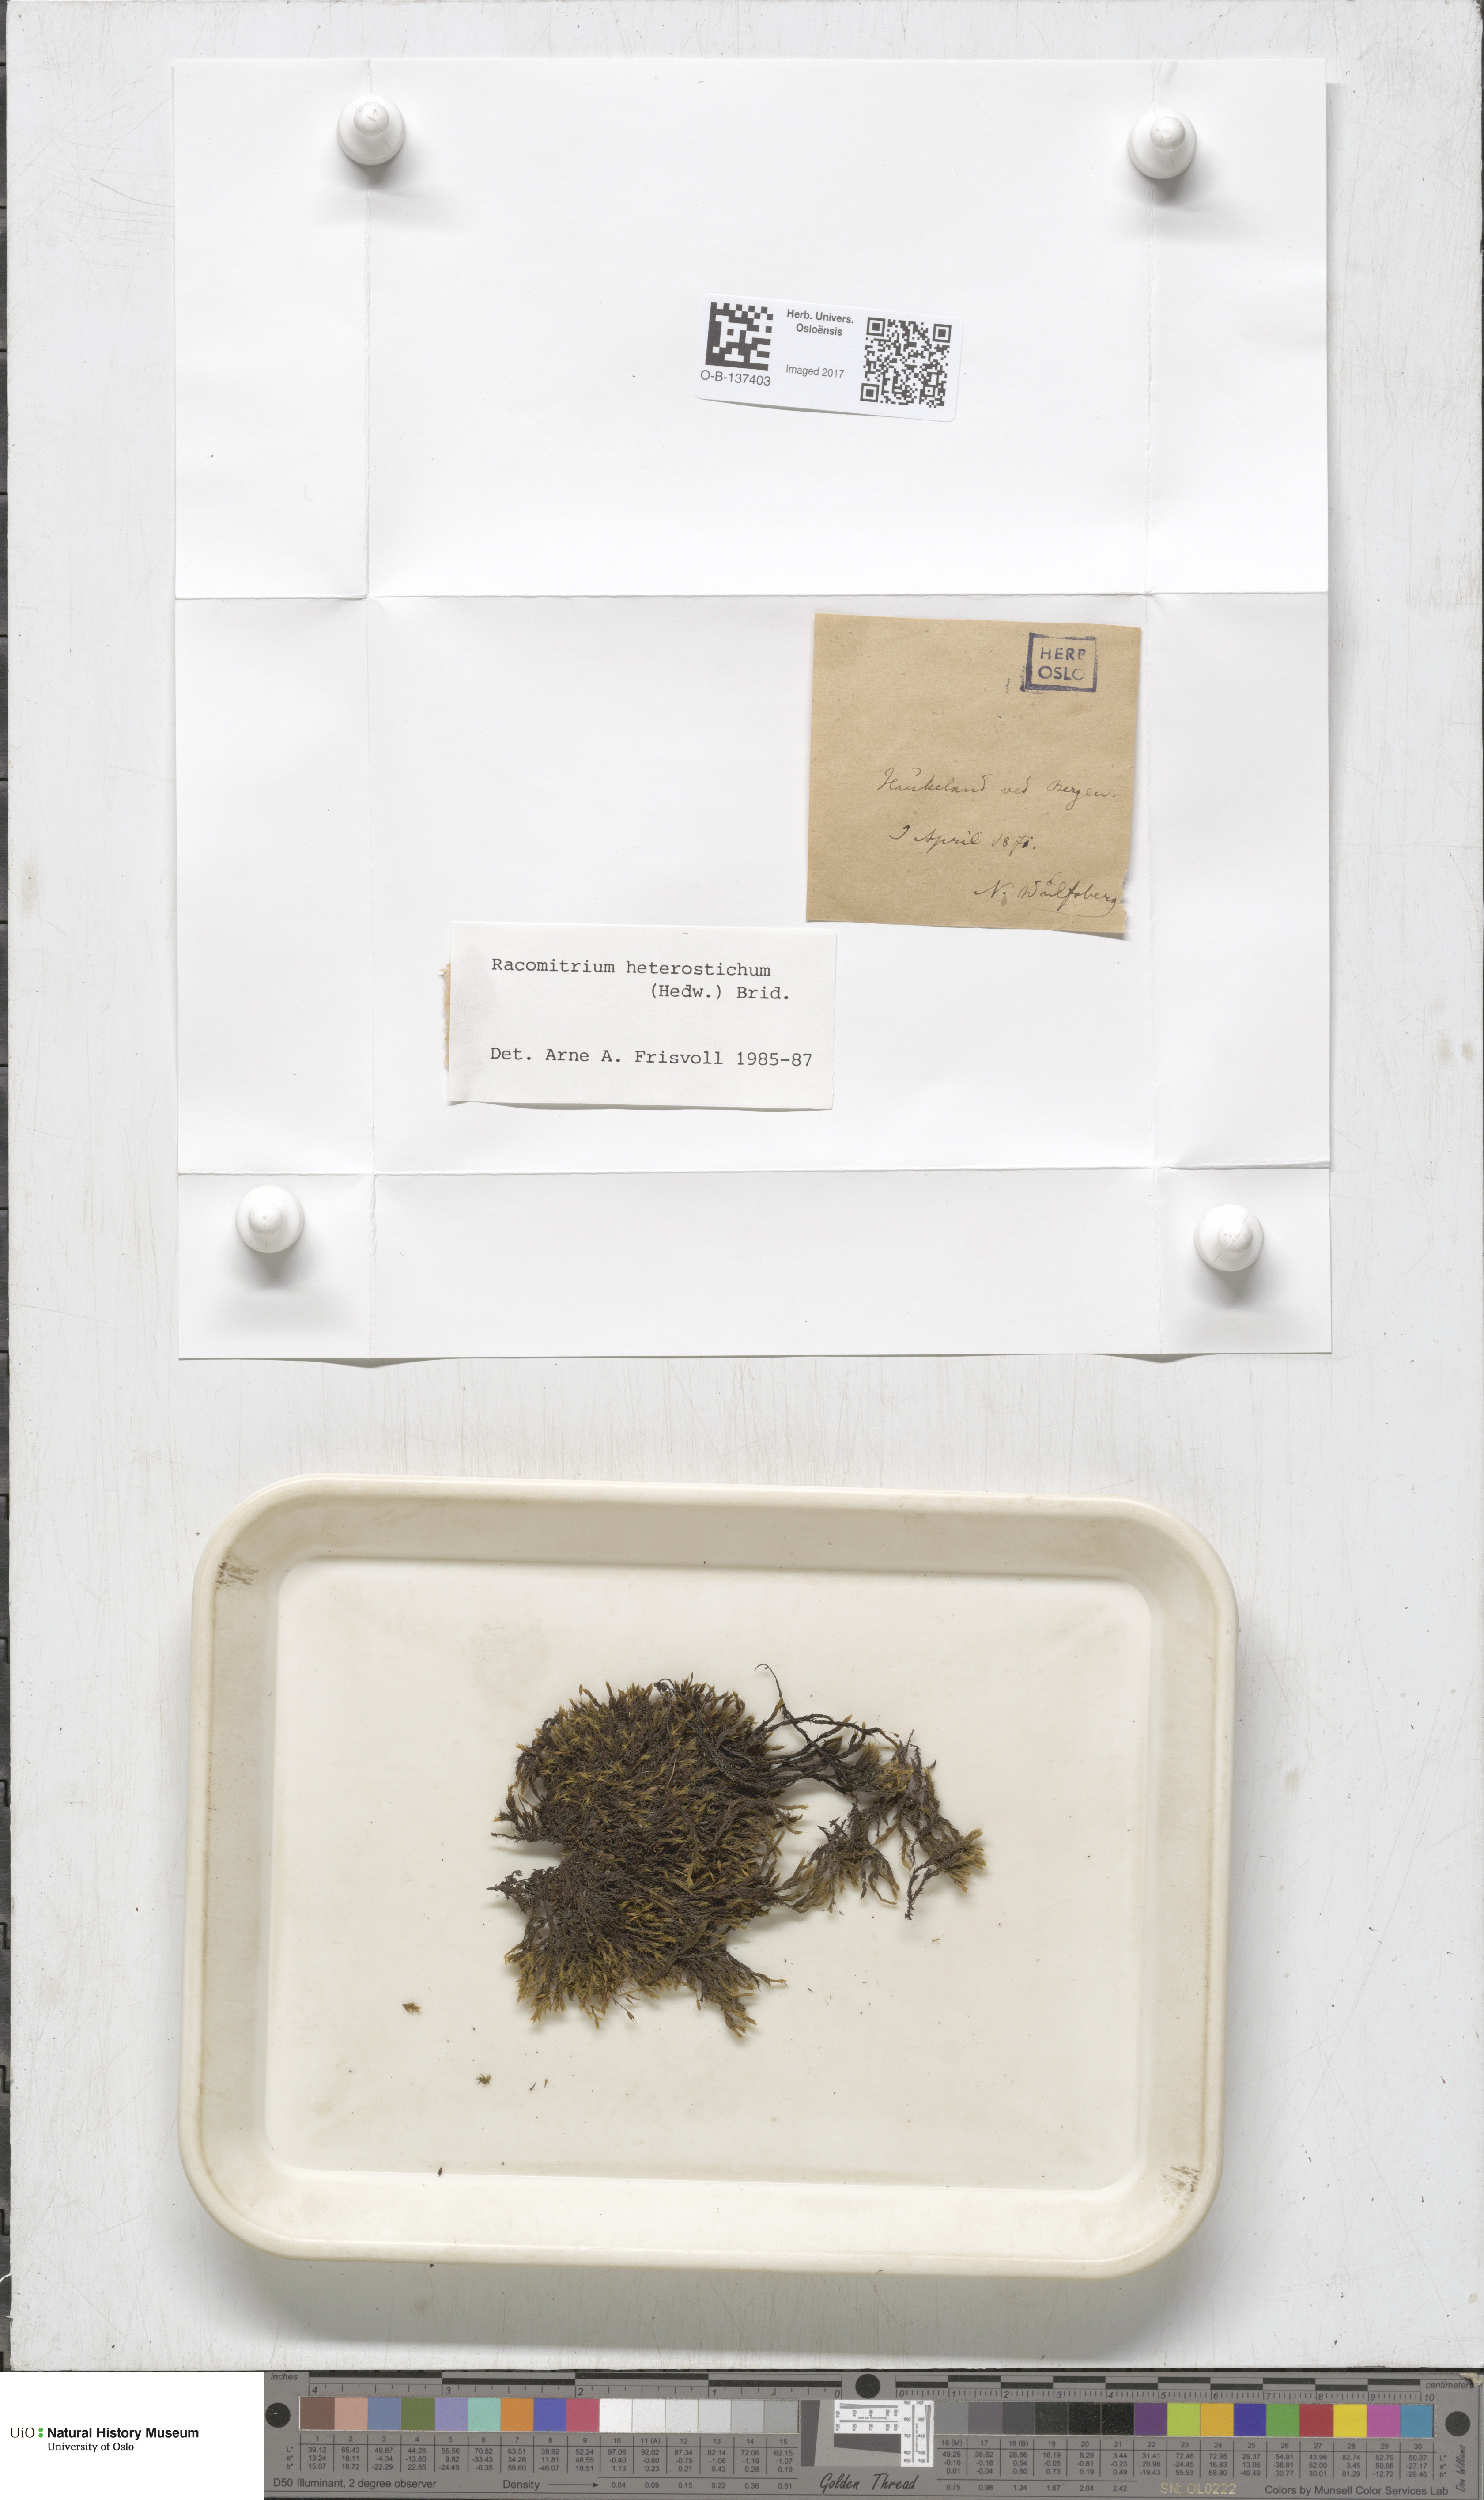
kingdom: Plantae
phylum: Bryophyta
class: Bryopsida
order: Grimmiales
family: Grimmiaceae
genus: Bucklandiella
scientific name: Bucklandiella heterosticha
